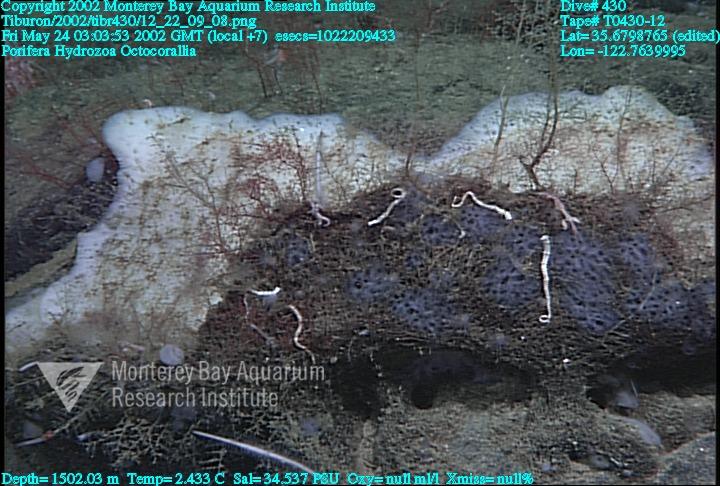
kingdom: Animalia
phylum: Porifera
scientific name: Porifera
